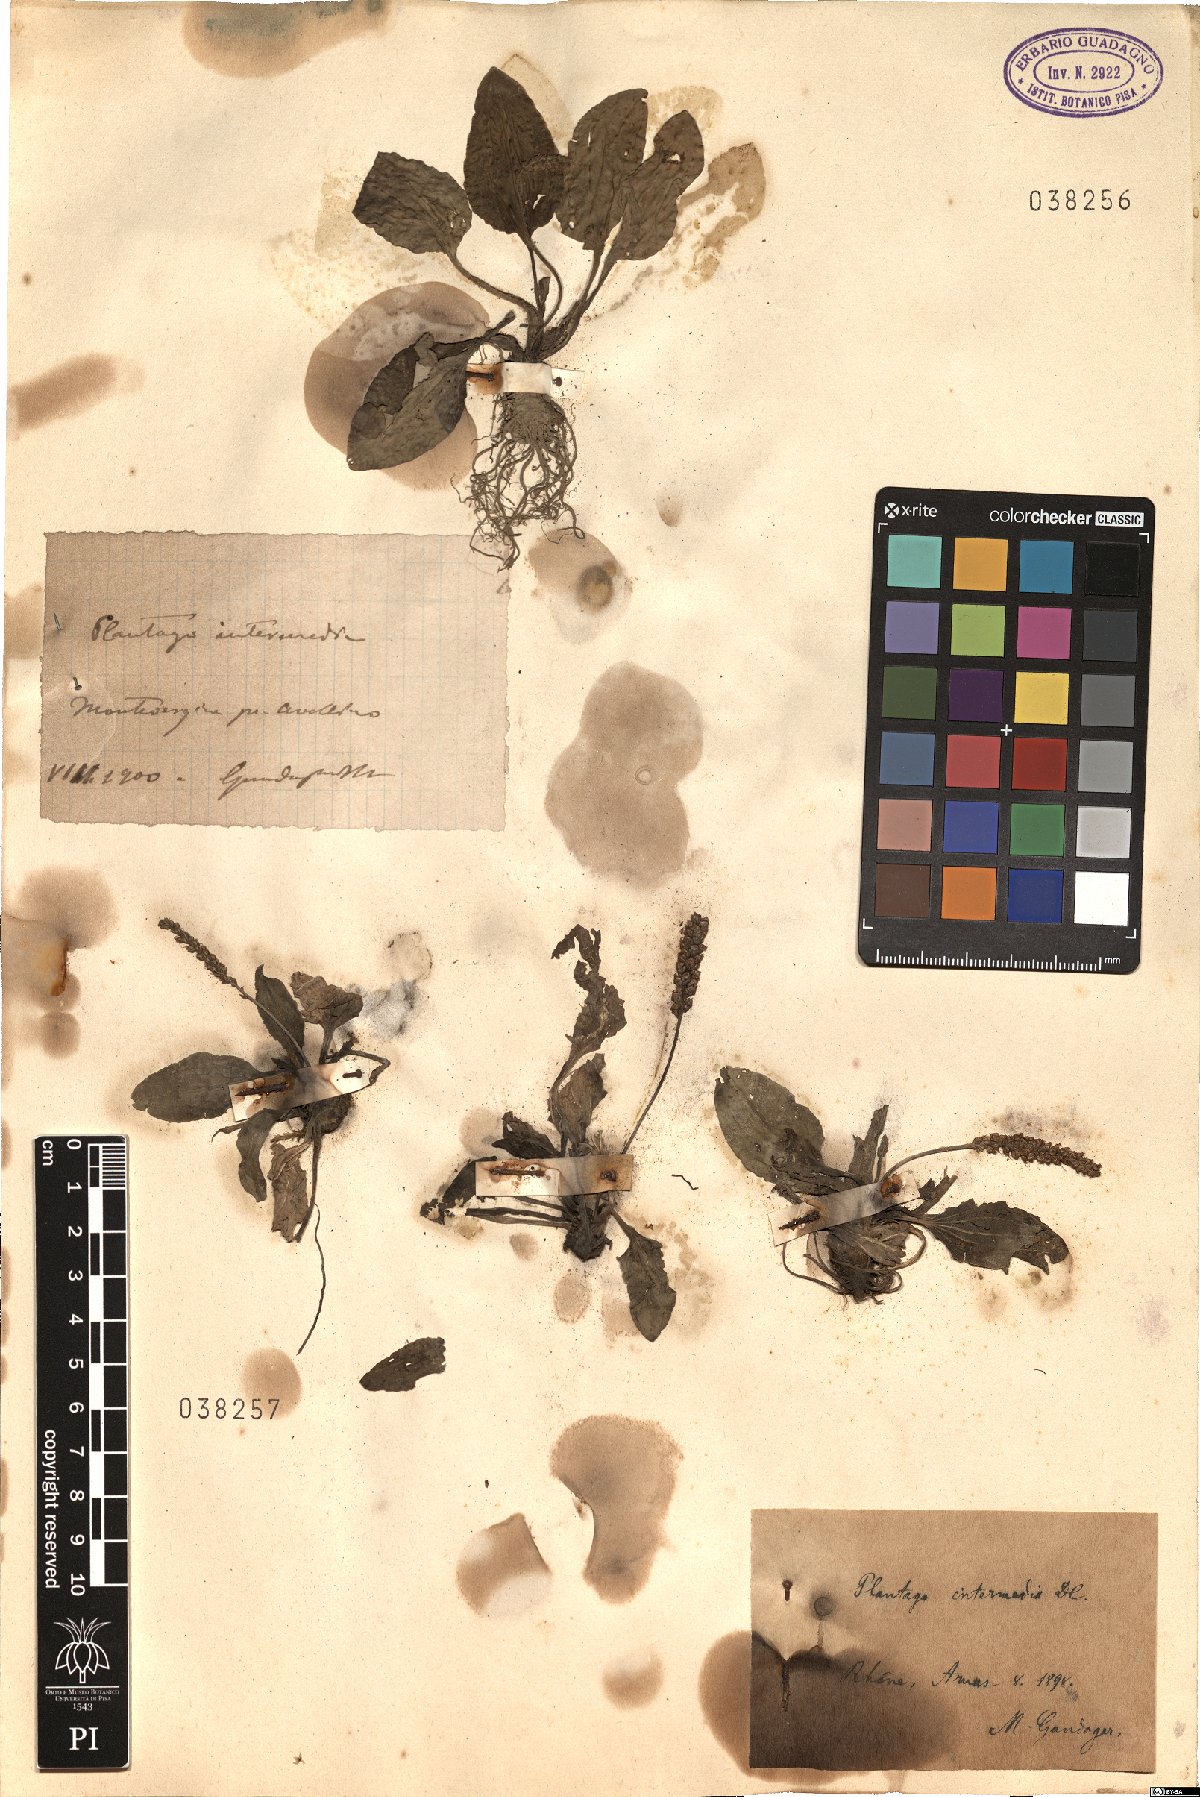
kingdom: Plantae
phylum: Tracheophyta
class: Magnoliopsida
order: Lamiales
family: Plantaginaceae
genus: Plantago
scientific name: Plantago uliginosa
